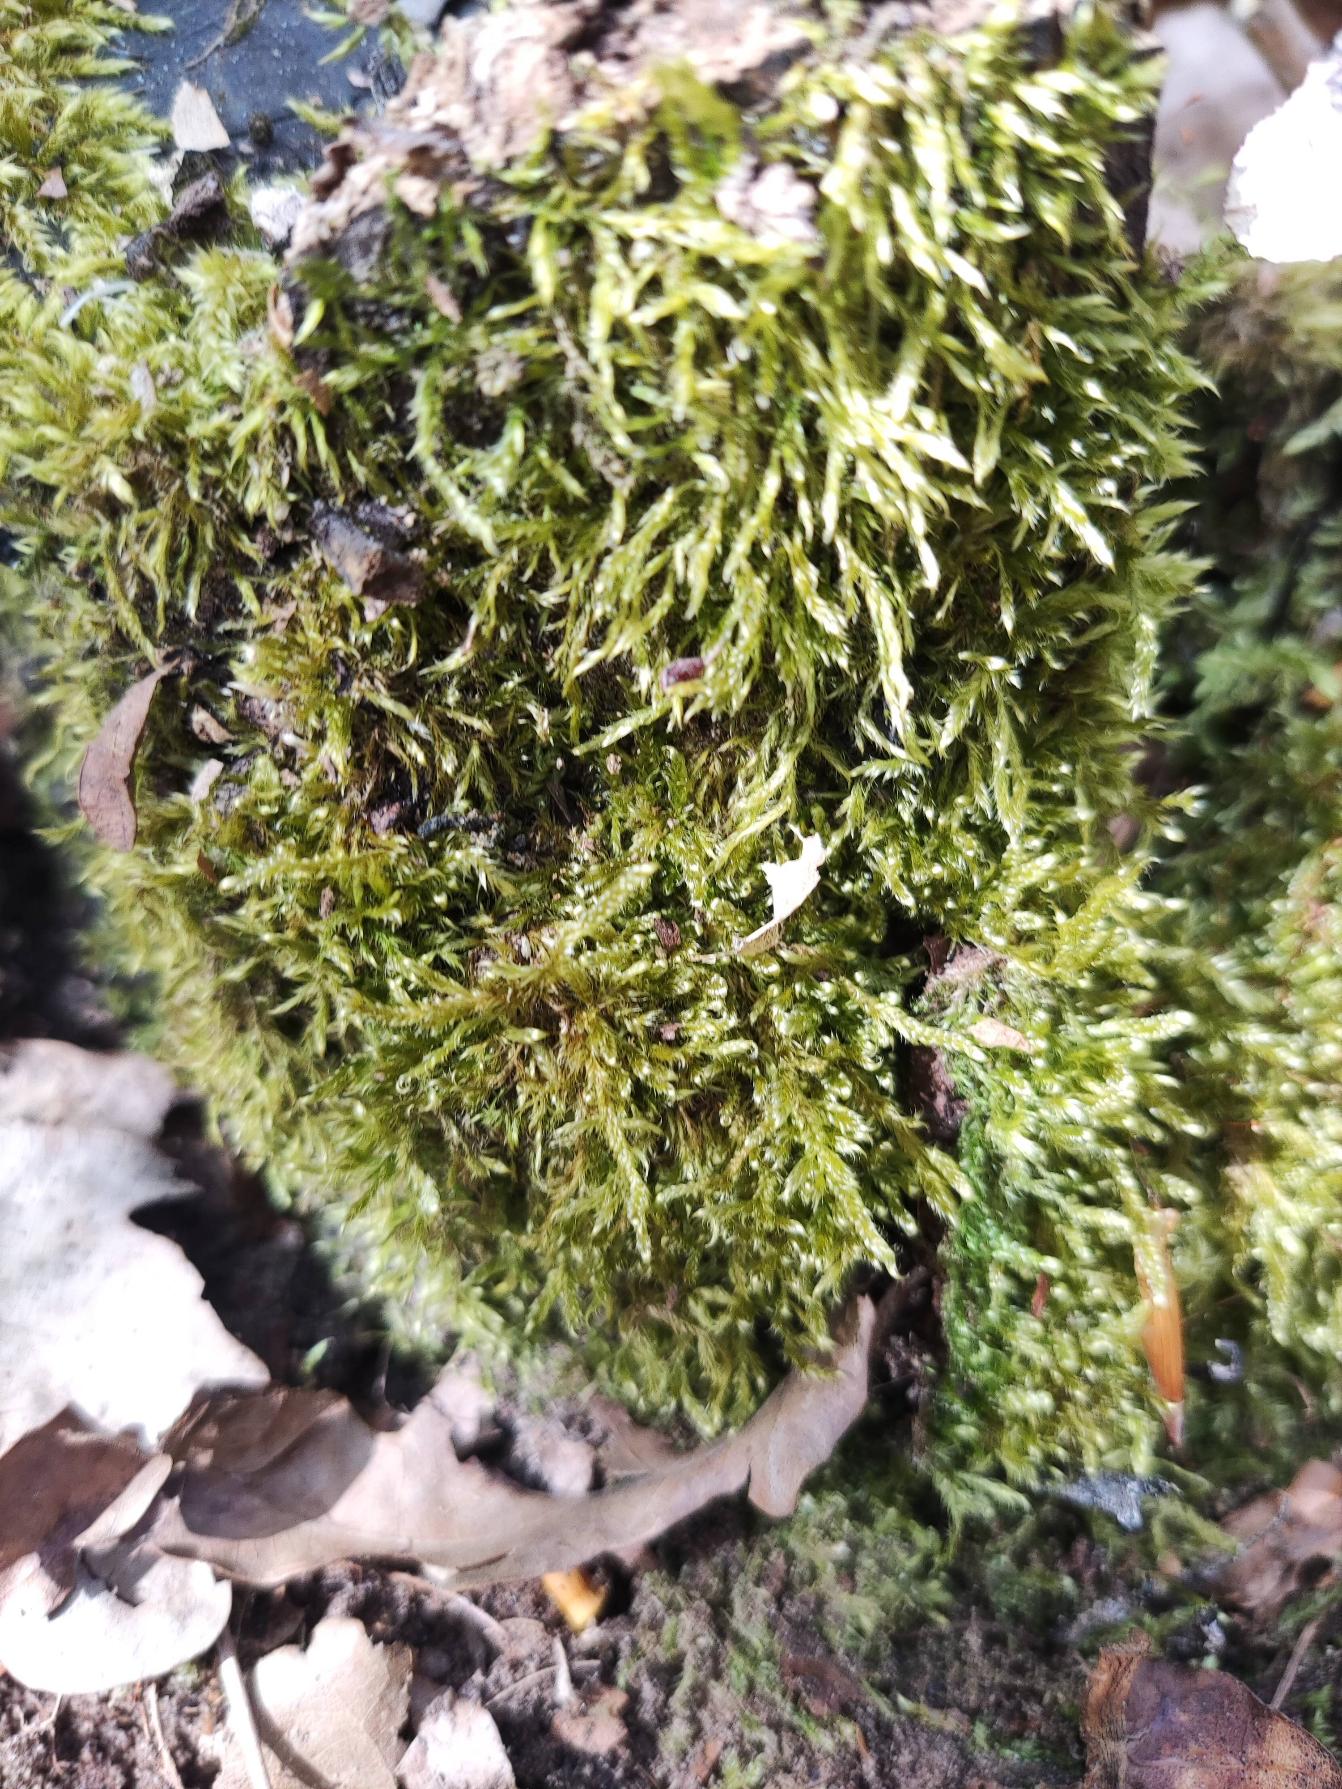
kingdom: Plantae
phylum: Bryophyta
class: Bryopsida
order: Hypnales
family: Hypnaceae
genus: Hypnum
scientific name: Hypnum cupressiforme
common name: Almindelig cypresmos
